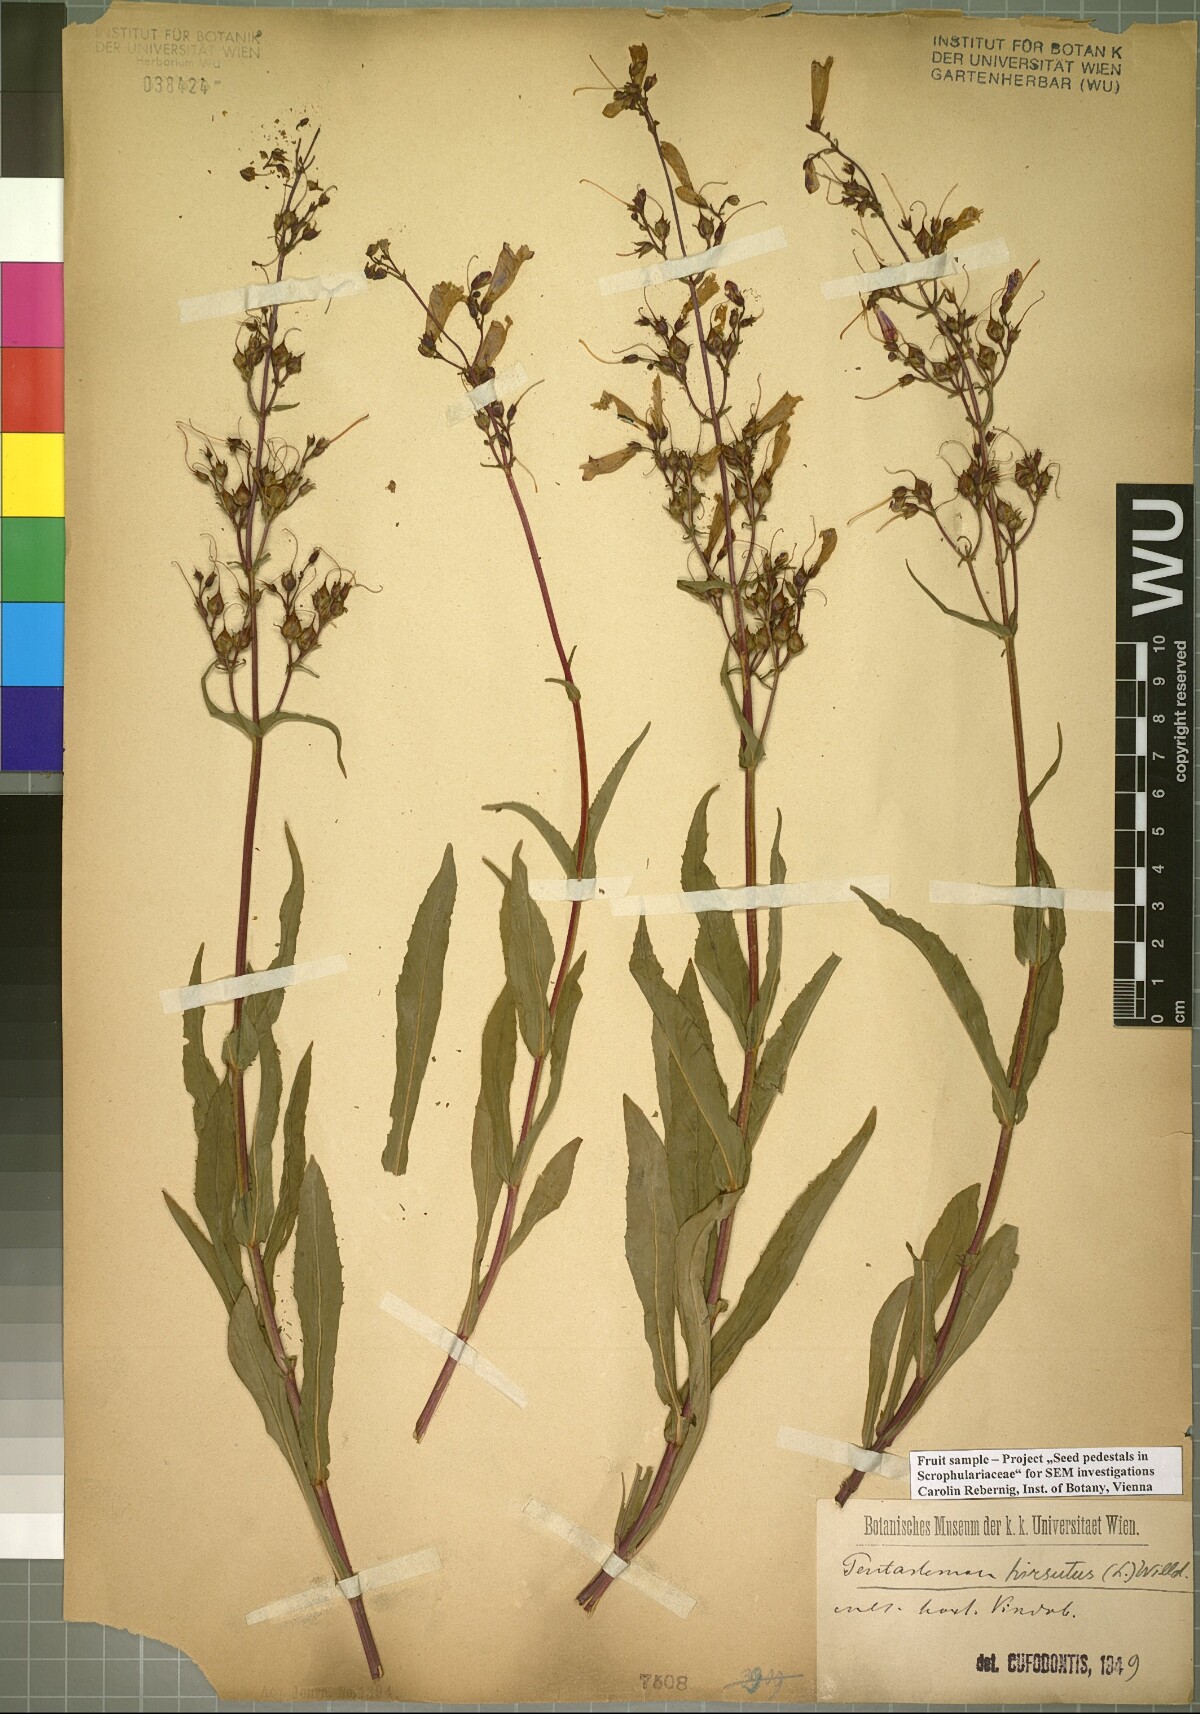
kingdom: Plantae
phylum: Tracheophyta
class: Magnoliopsida
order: Lamiales
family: Plantaginaceae
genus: Penstemon
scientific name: Penstemon hirsutus
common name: Hairy beardtongue
